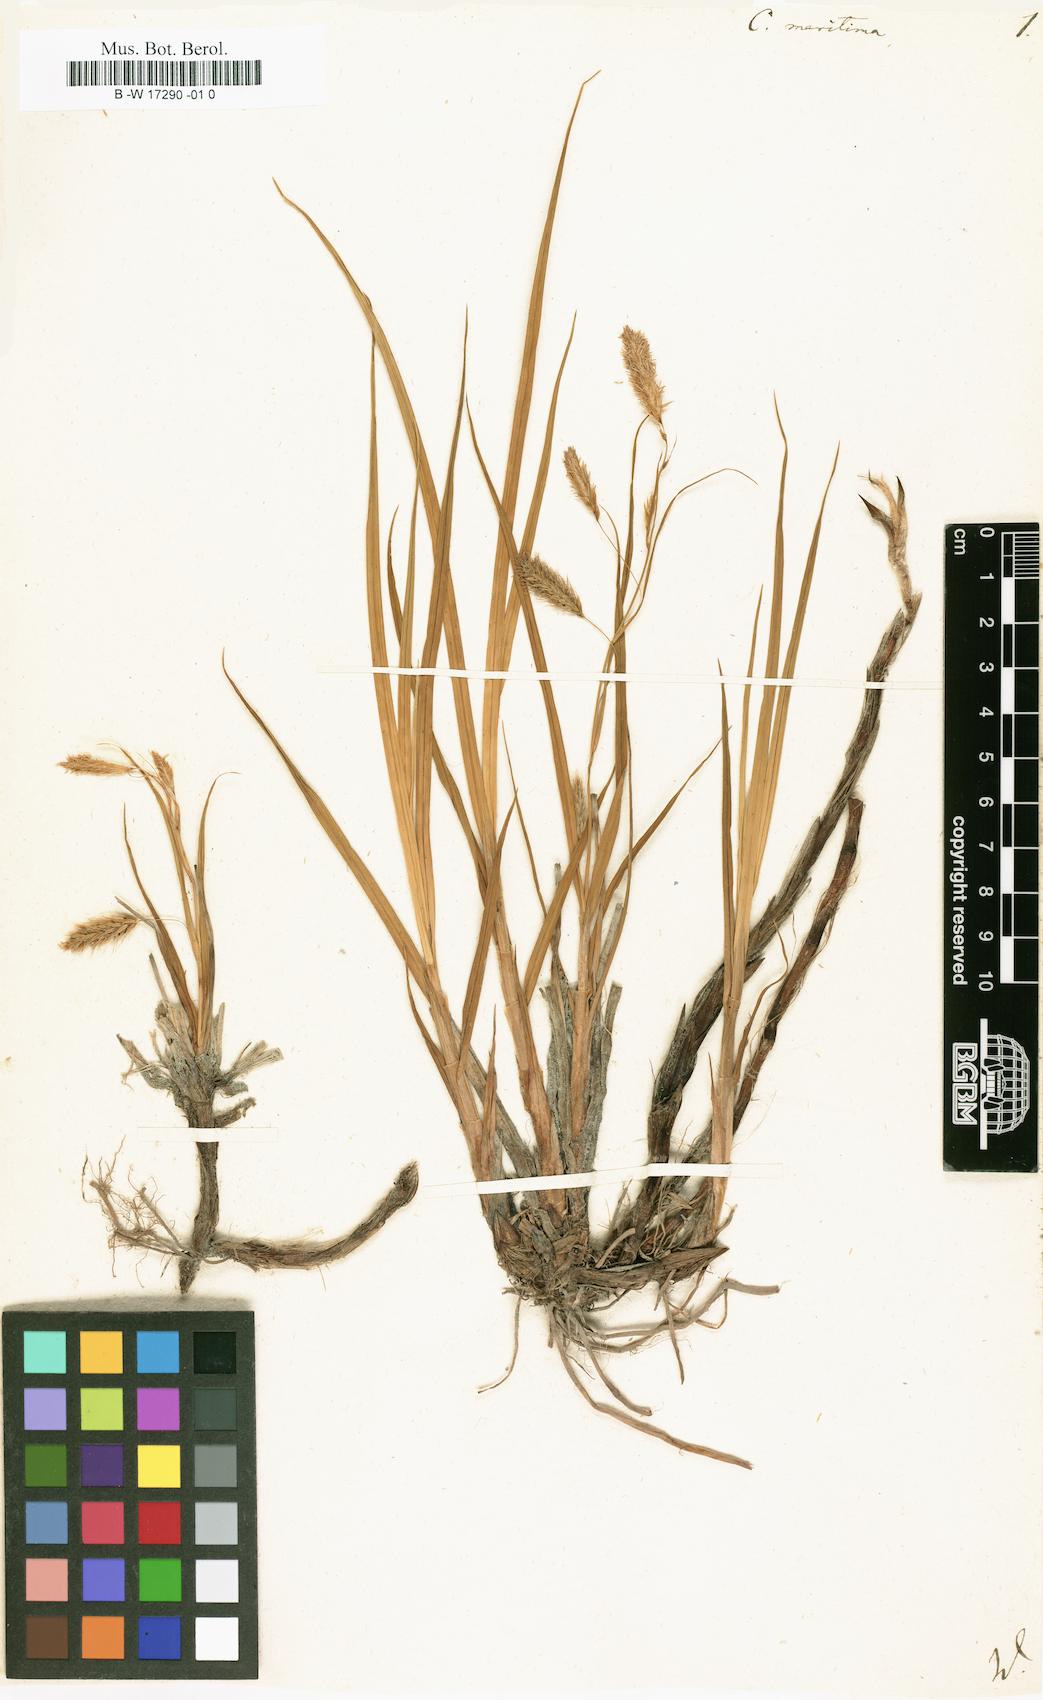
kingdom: Plantae
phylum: Tracheophyta
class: Liliopsida
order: Poales
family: Cyperaceae
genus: Carex
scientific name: Carex maritima
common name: Curved sedge
